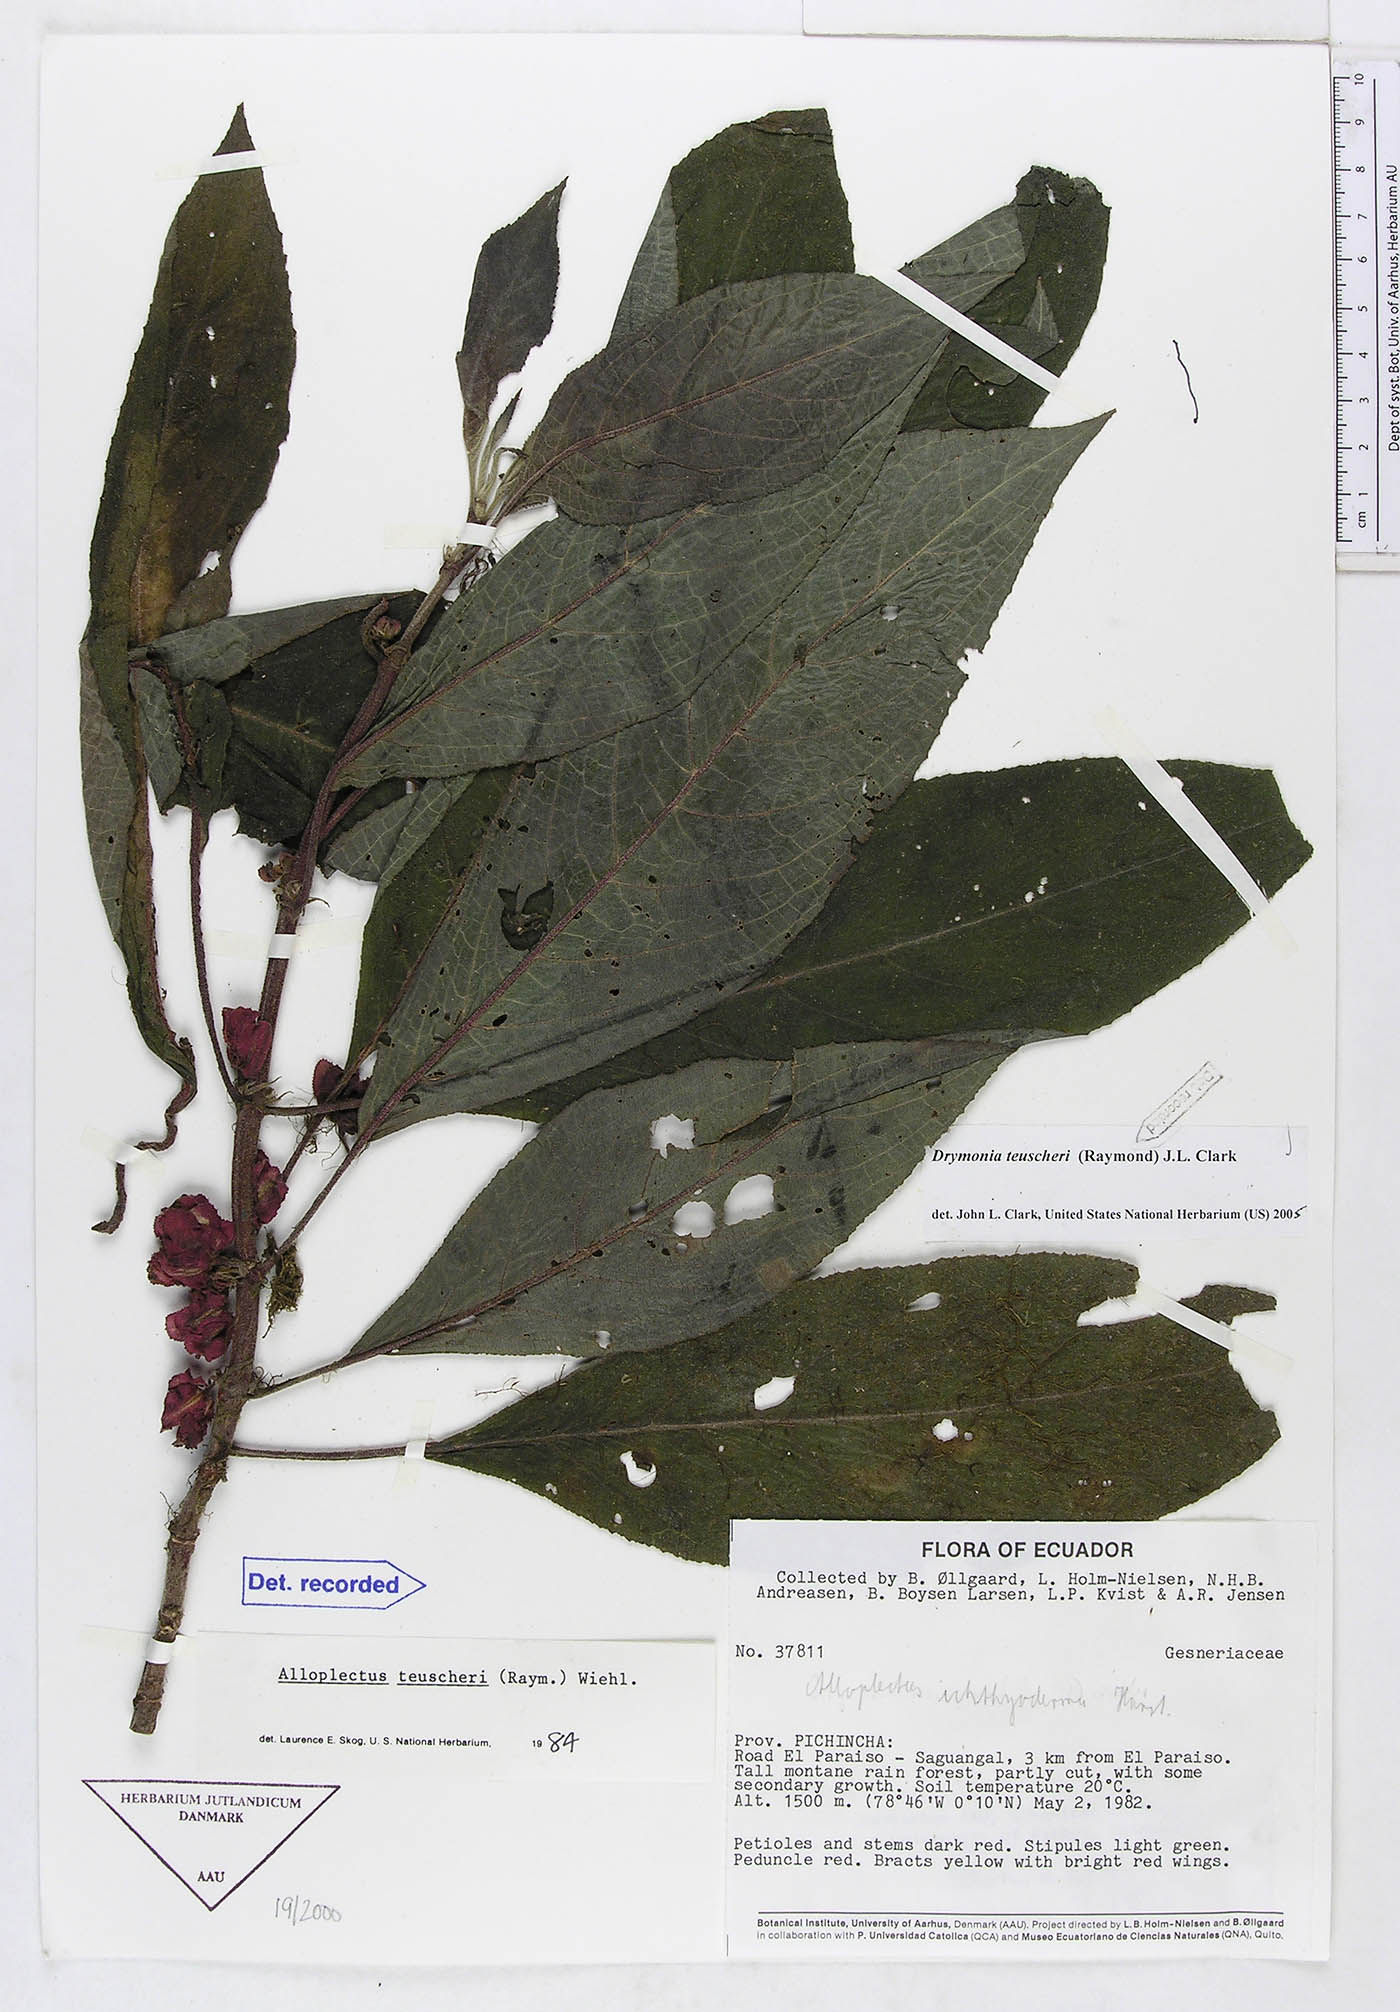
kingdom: Plantae
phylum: Tracheophyta
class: Magnoliopsida
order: Lamiales
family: Gesneriaceae
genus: Drymonia
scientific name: Drymonia teuscheri
